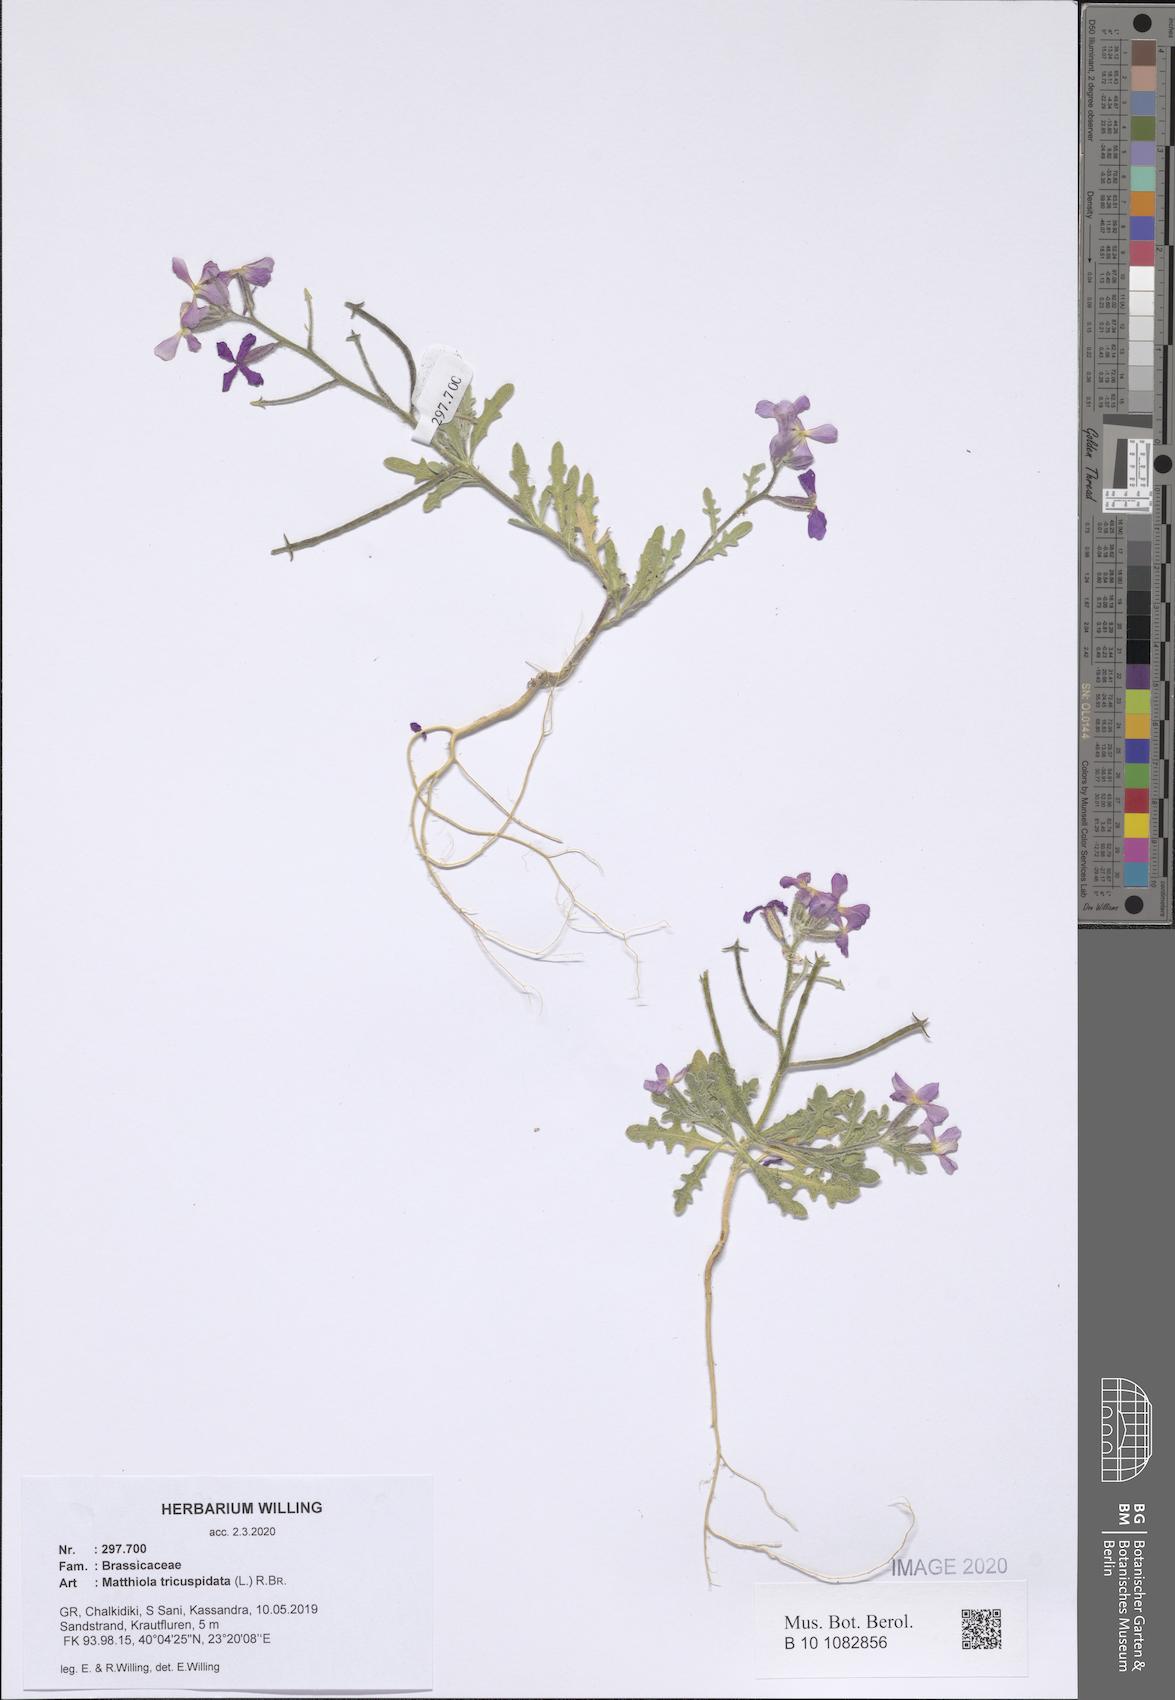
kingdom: Plantae
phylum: Tracheophyta
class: Magnoliopsida
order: Brassicales
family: Brassicaceae
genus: Matthiola
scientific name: Matthiola tricuspidata
